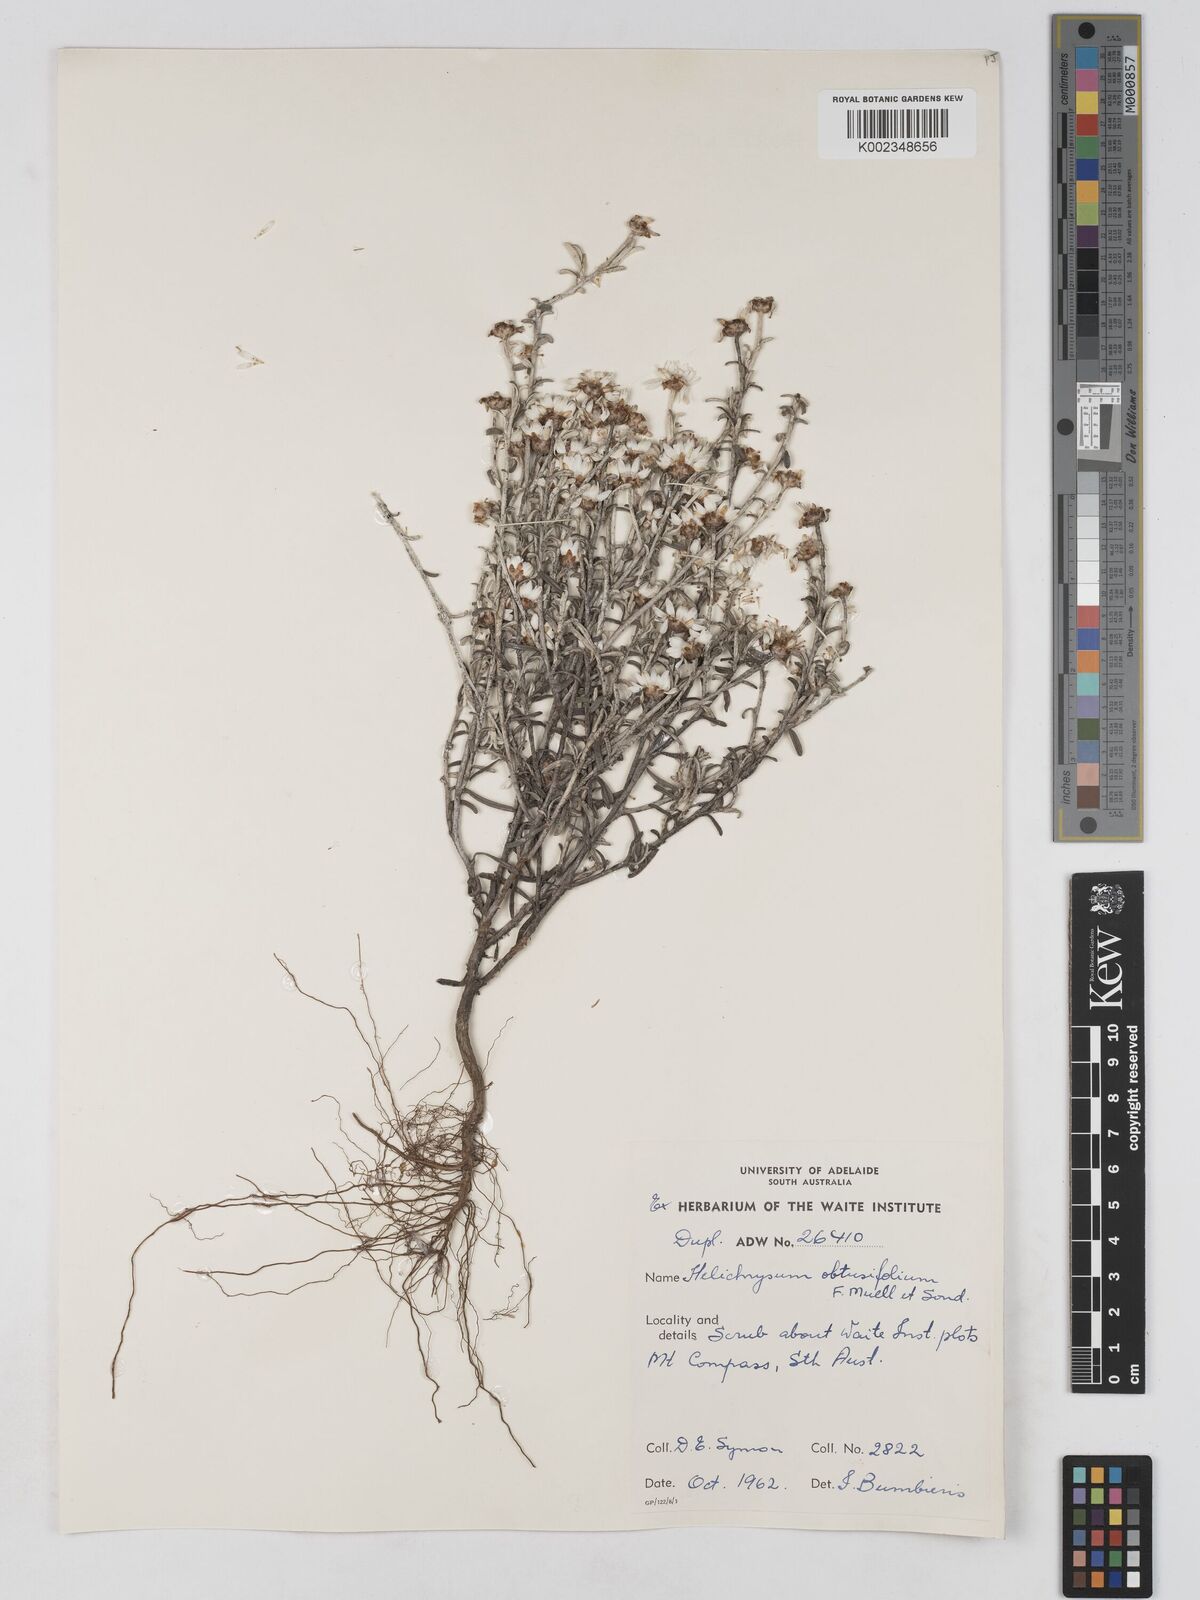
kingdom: Plantae
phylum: Tracheophyta
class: Magnoliopsida
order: Asterales
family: Asteraceae
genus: Argentipallium
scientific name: Argentipallium obtusifolium
